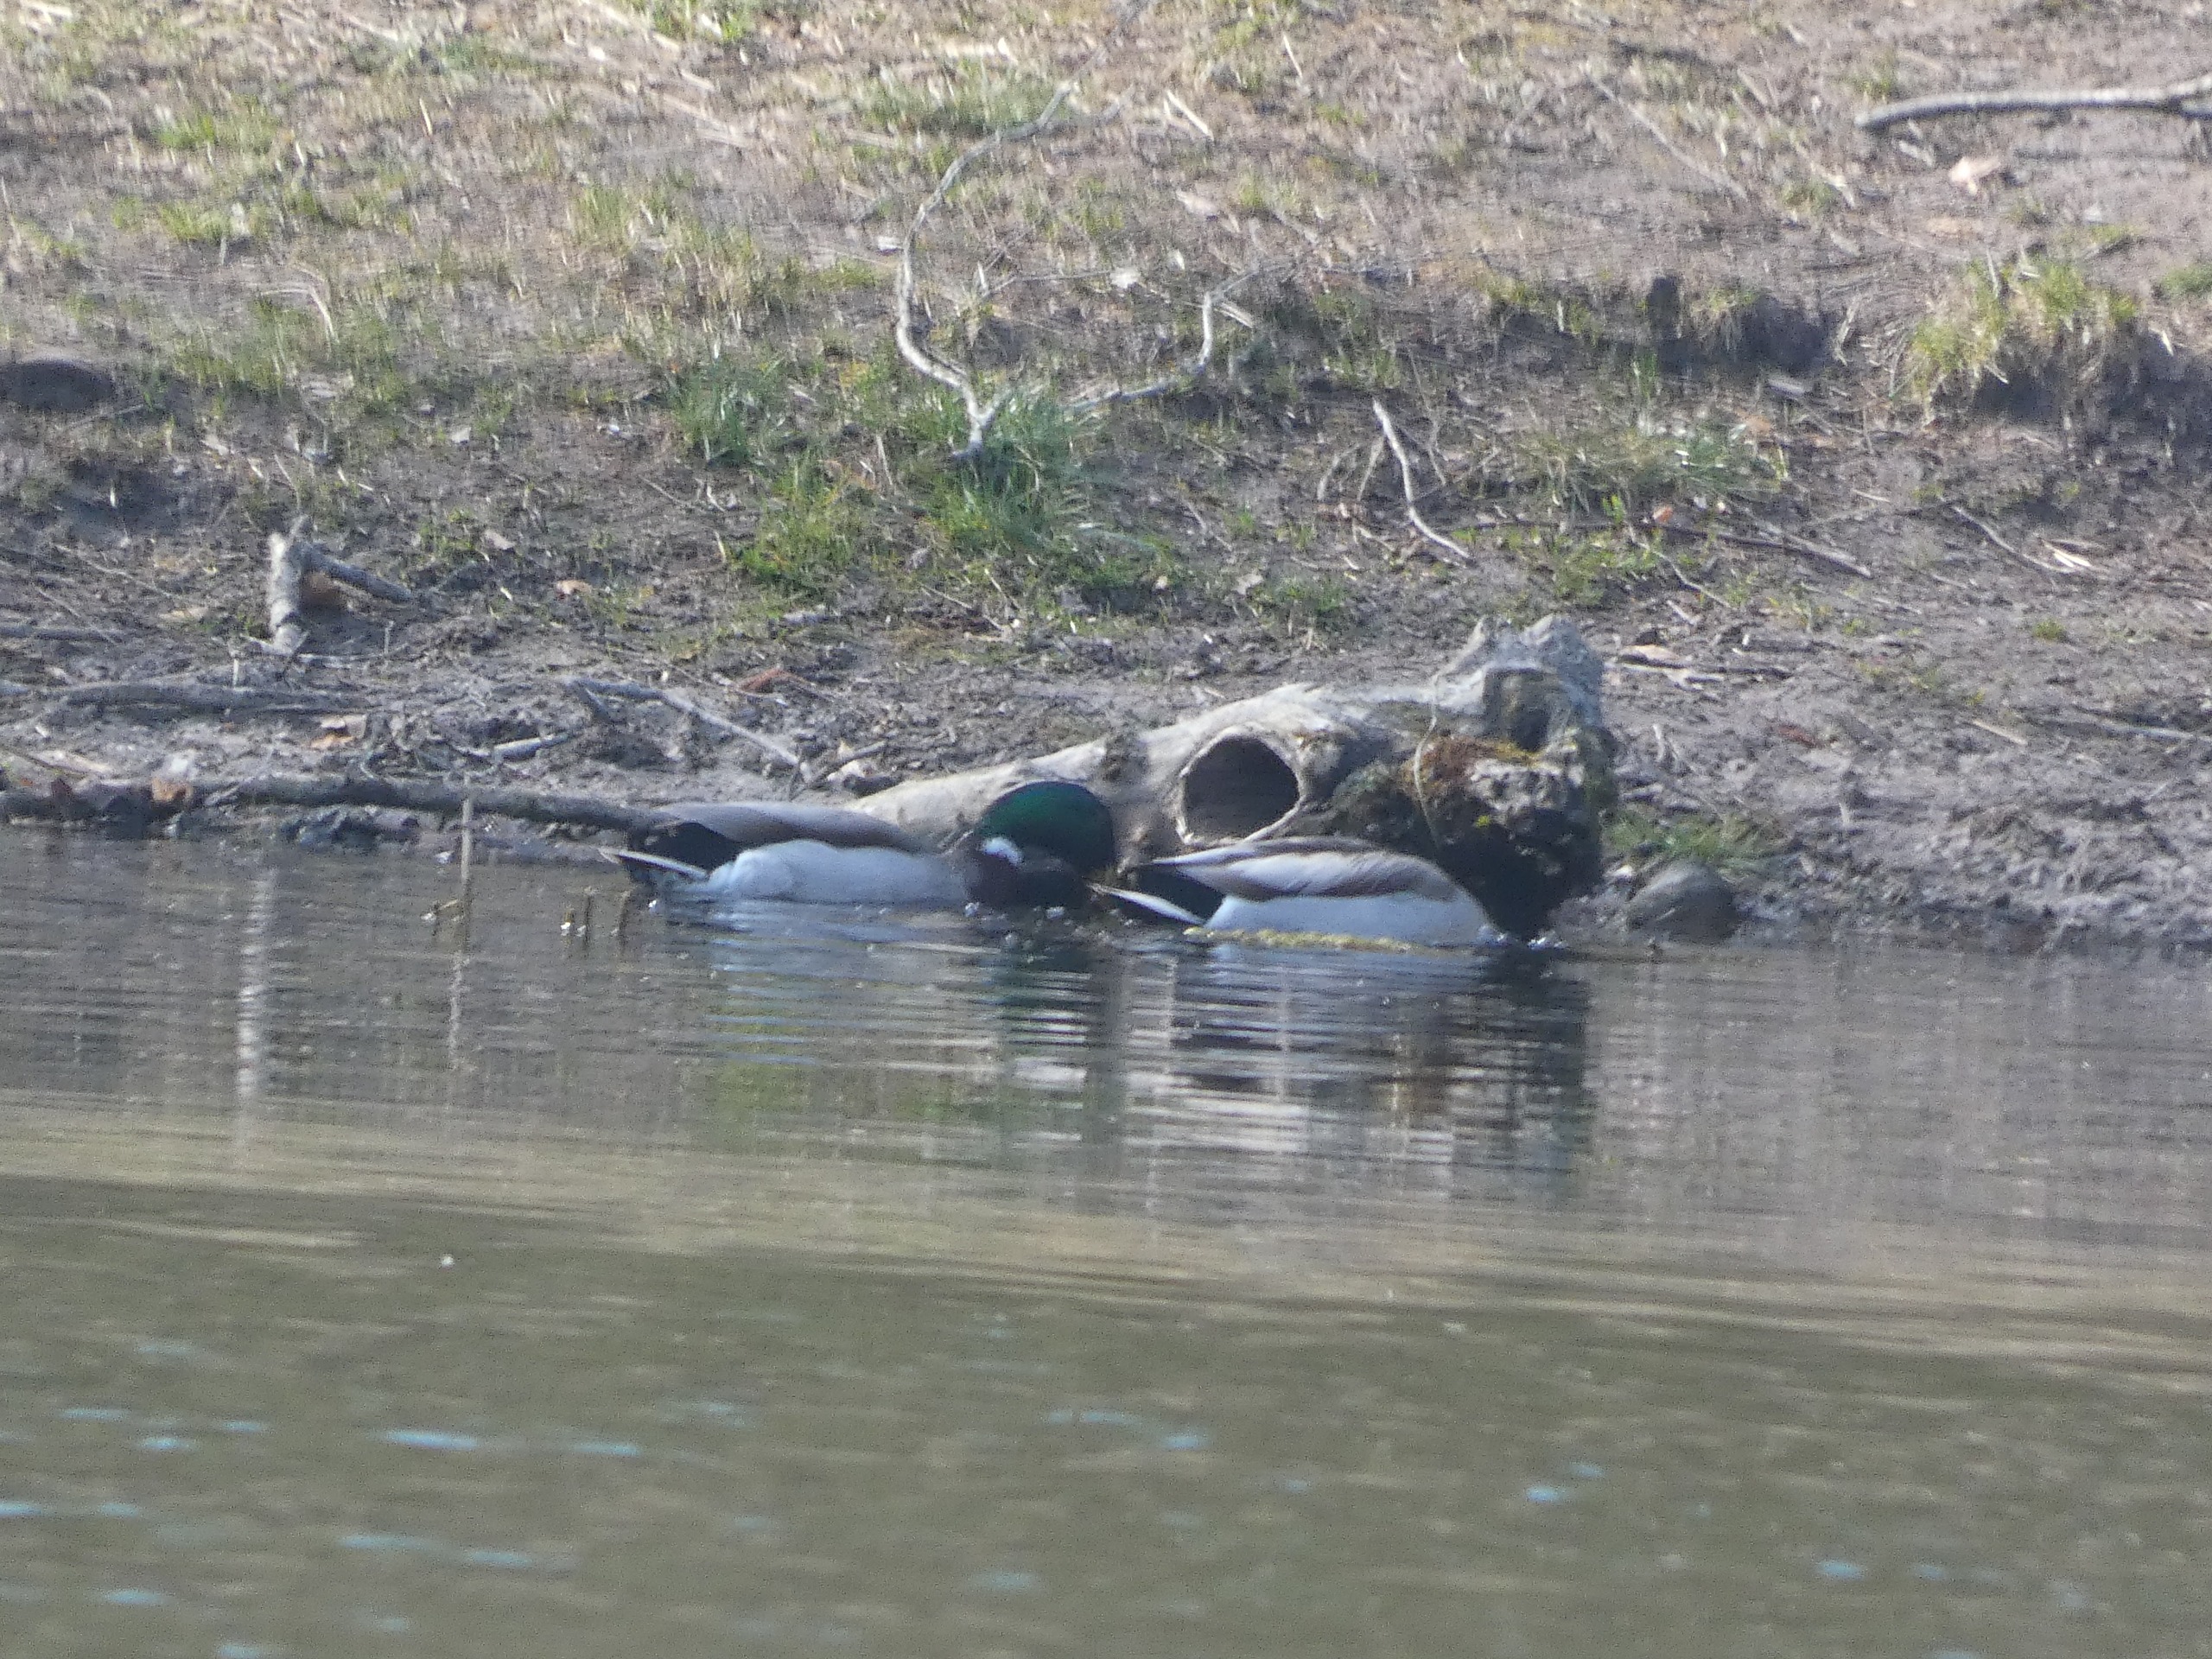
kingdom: Animalia
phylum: Chordata
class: Aves
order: Anseriformes
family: Anatidae
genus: Anas
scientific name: Anas platyrhynchos
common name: Gråand
